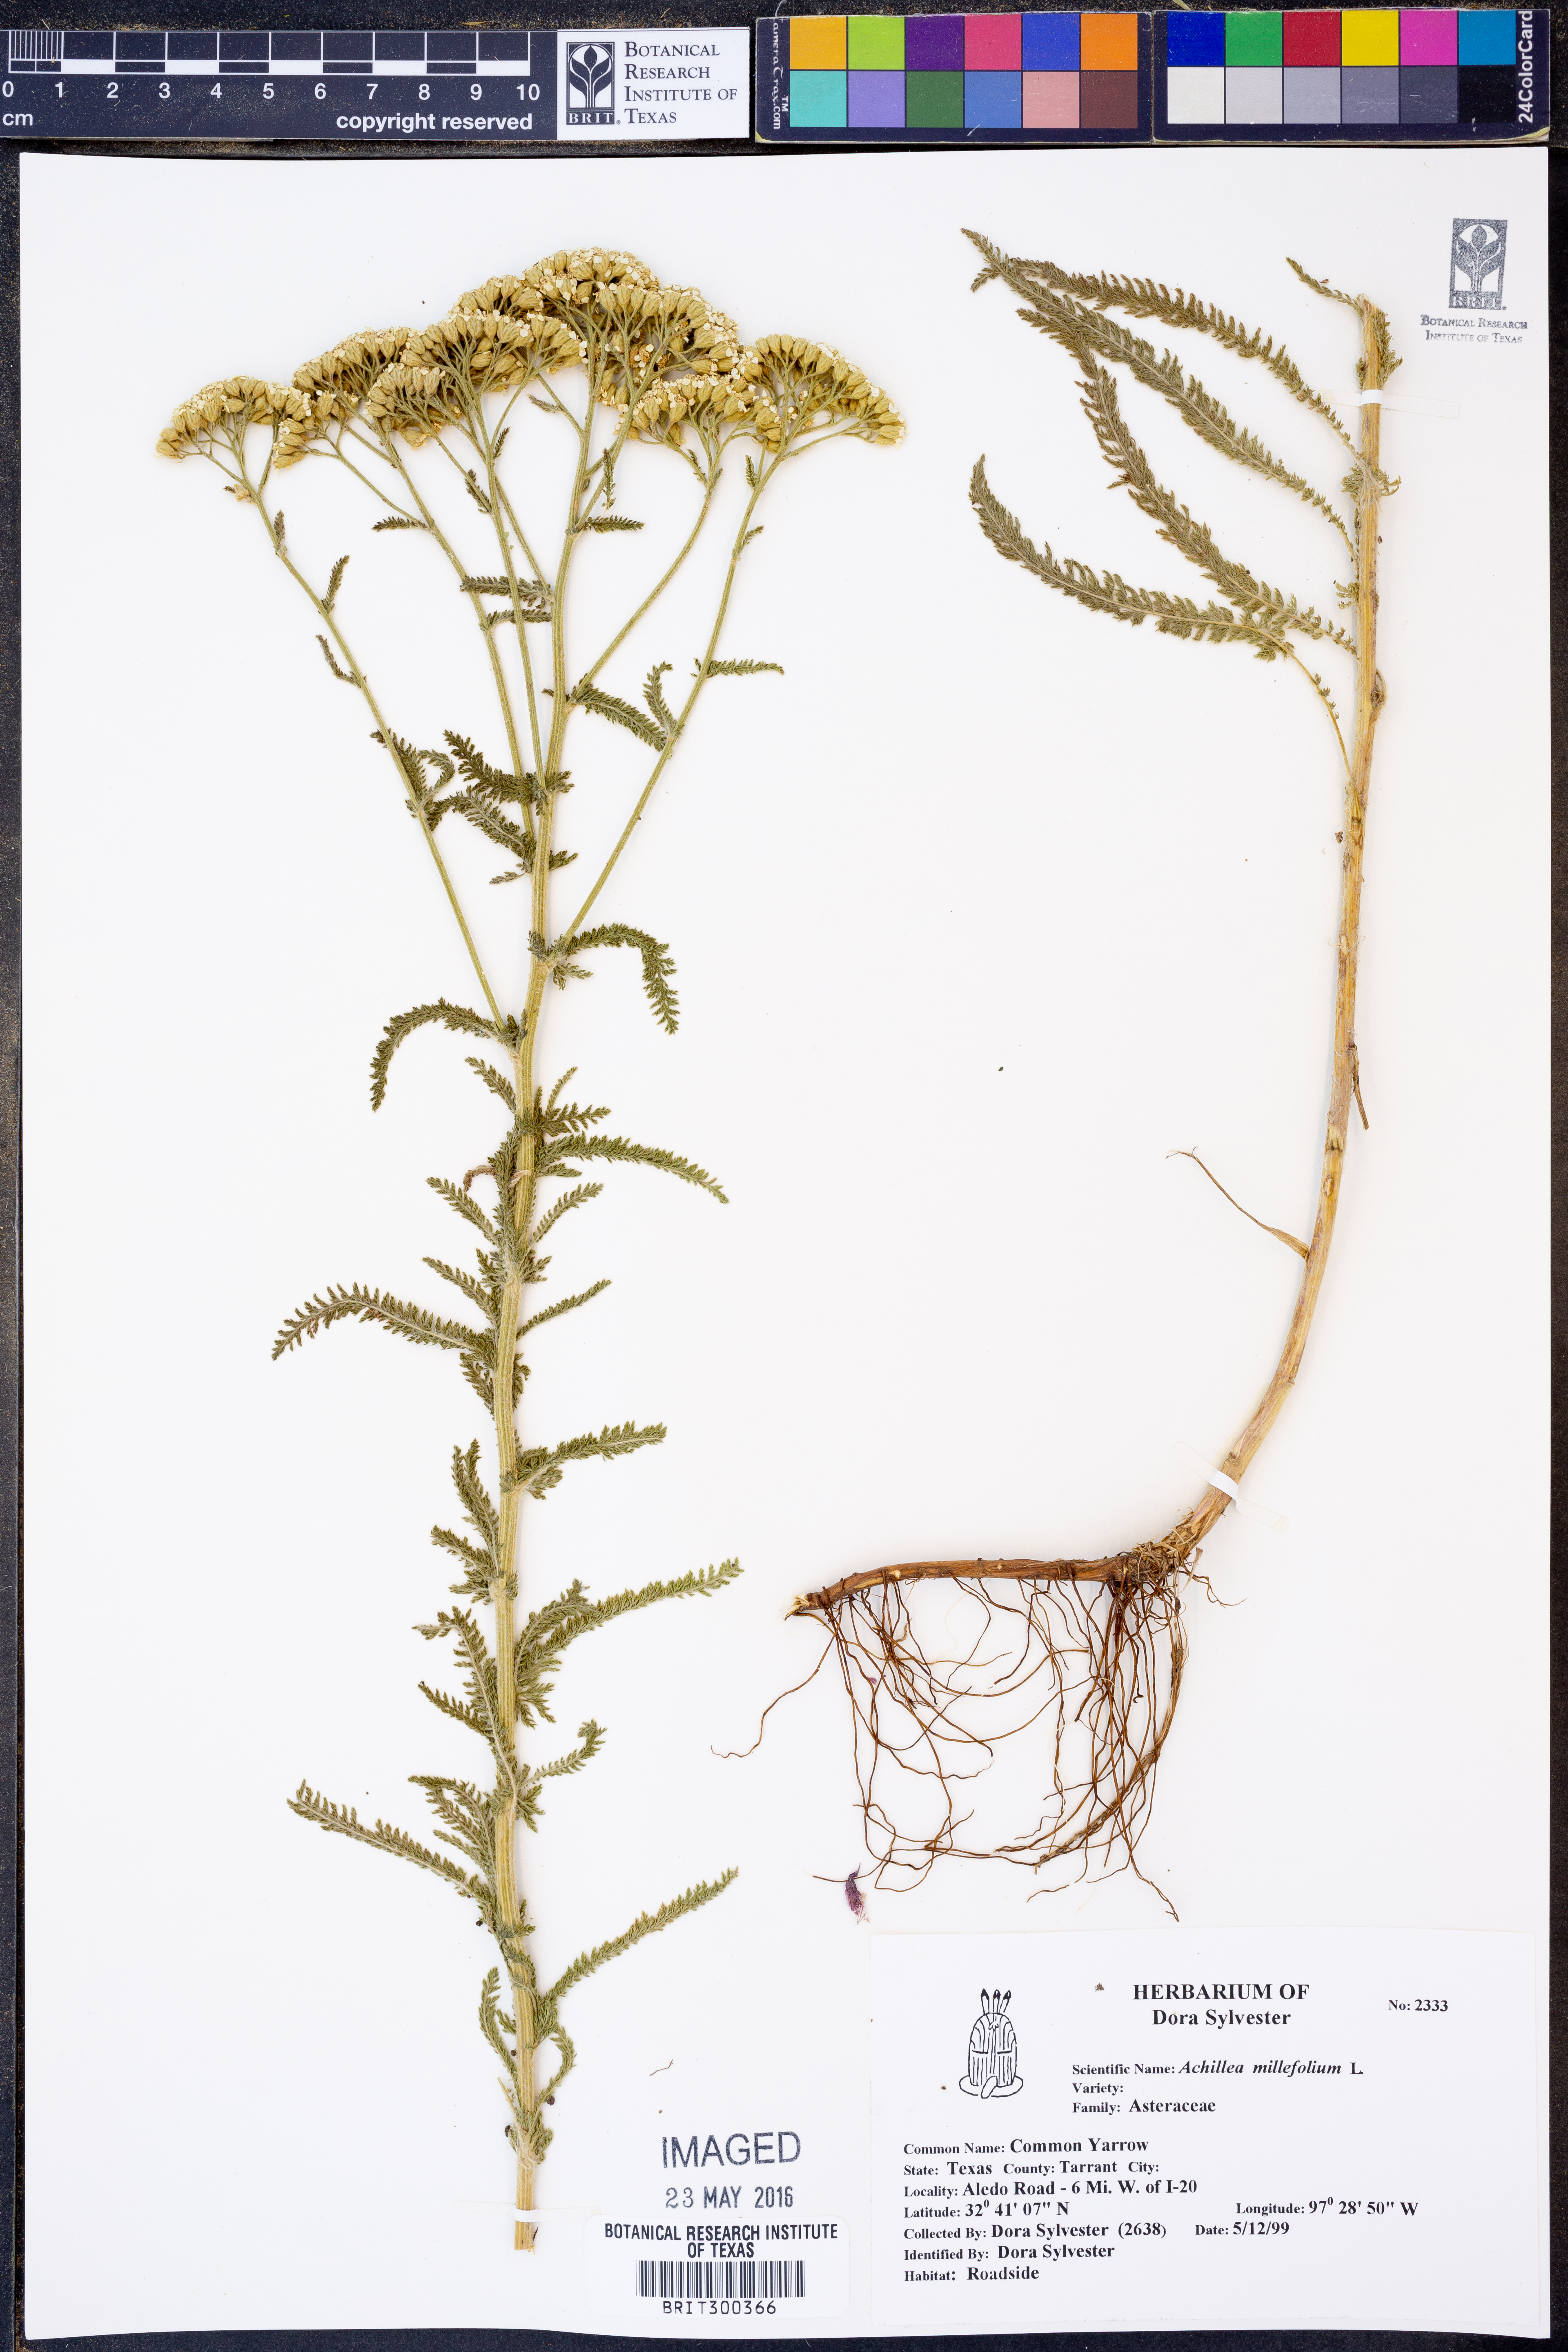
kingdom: Plantae
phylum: Tracheophyta
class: Magnoliopsida
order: Asterales
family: Asteraceae
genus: Achillea
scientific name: Achillea millefolium
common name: Yarrow
